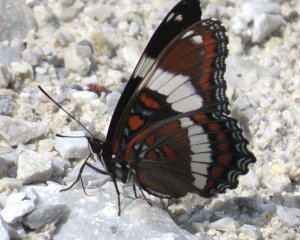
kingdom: Animalia
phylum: Arthropoda
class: Insecta
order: Lepidoptera
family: Nymphalidae
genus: Limenitis
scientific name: Limenitis arthemis
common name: Red-spotted Admiral
